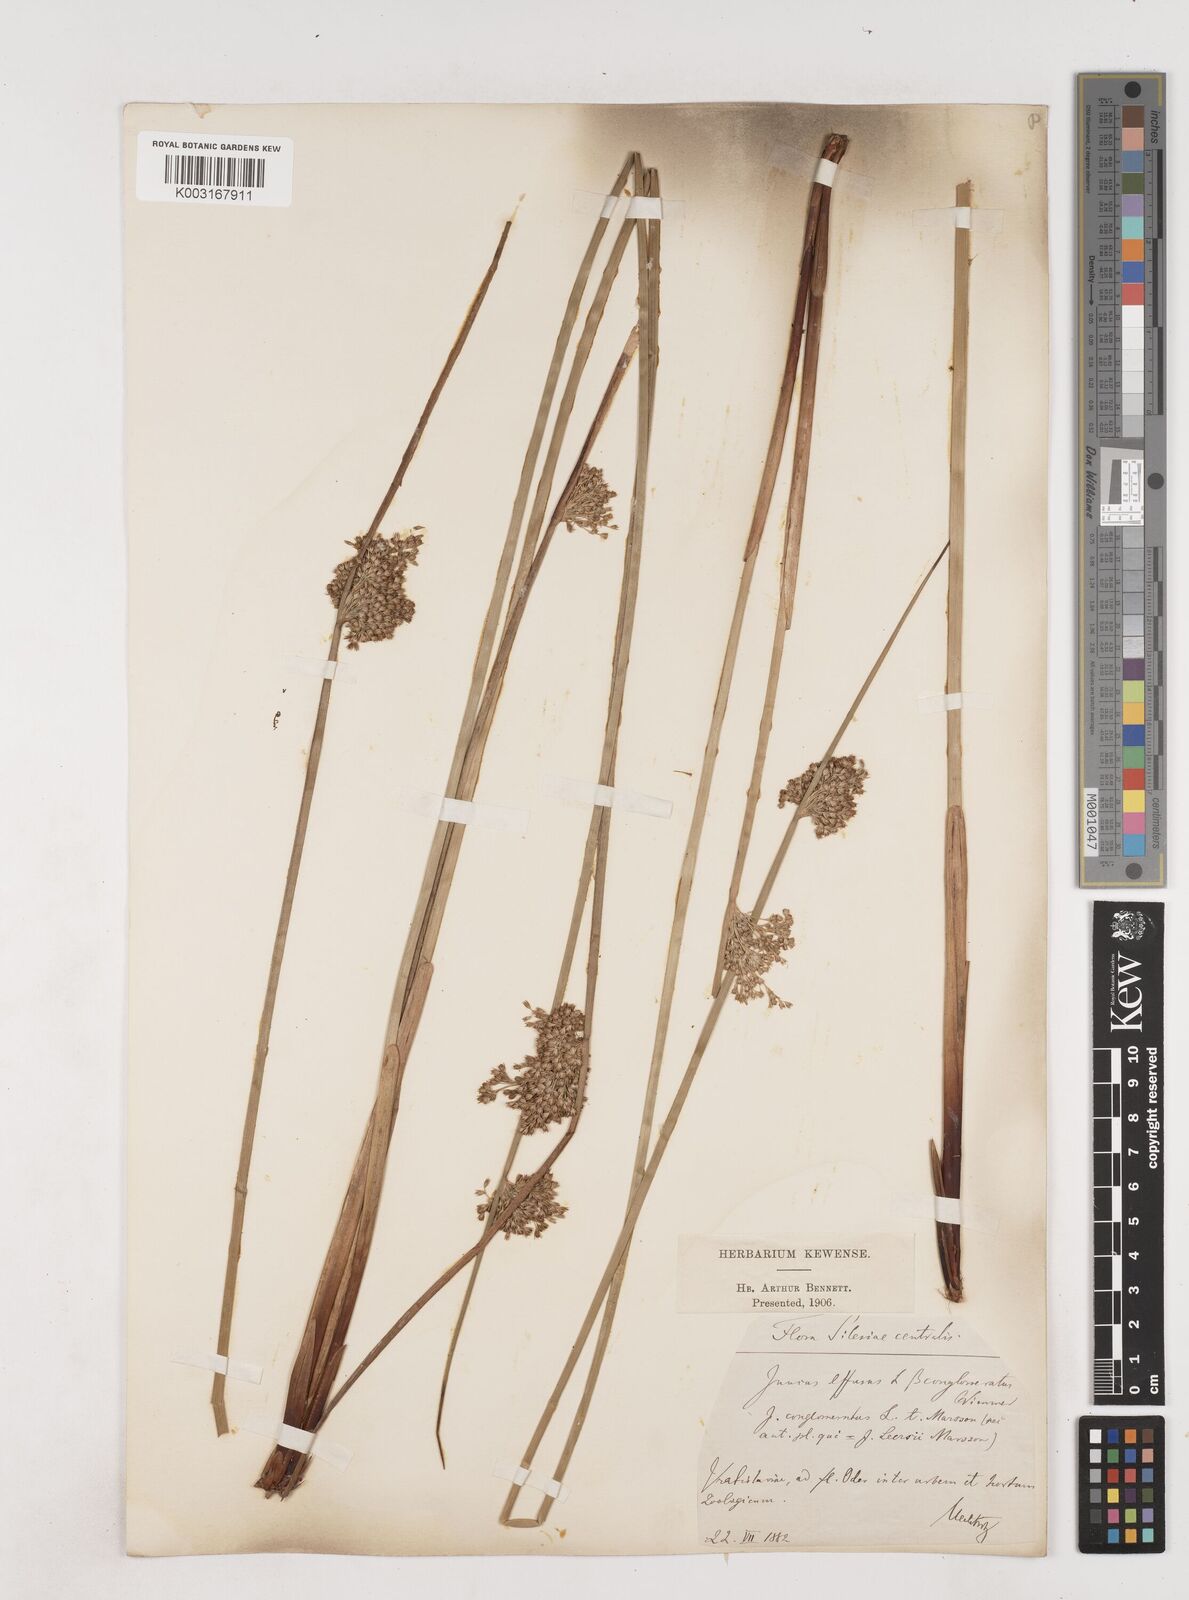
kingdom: Plantae
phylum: Tracheophyta
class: Liliopsida
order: Poales
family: Juncaceae
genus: Juncus
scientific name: Juncus effusus
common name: Soft rush
